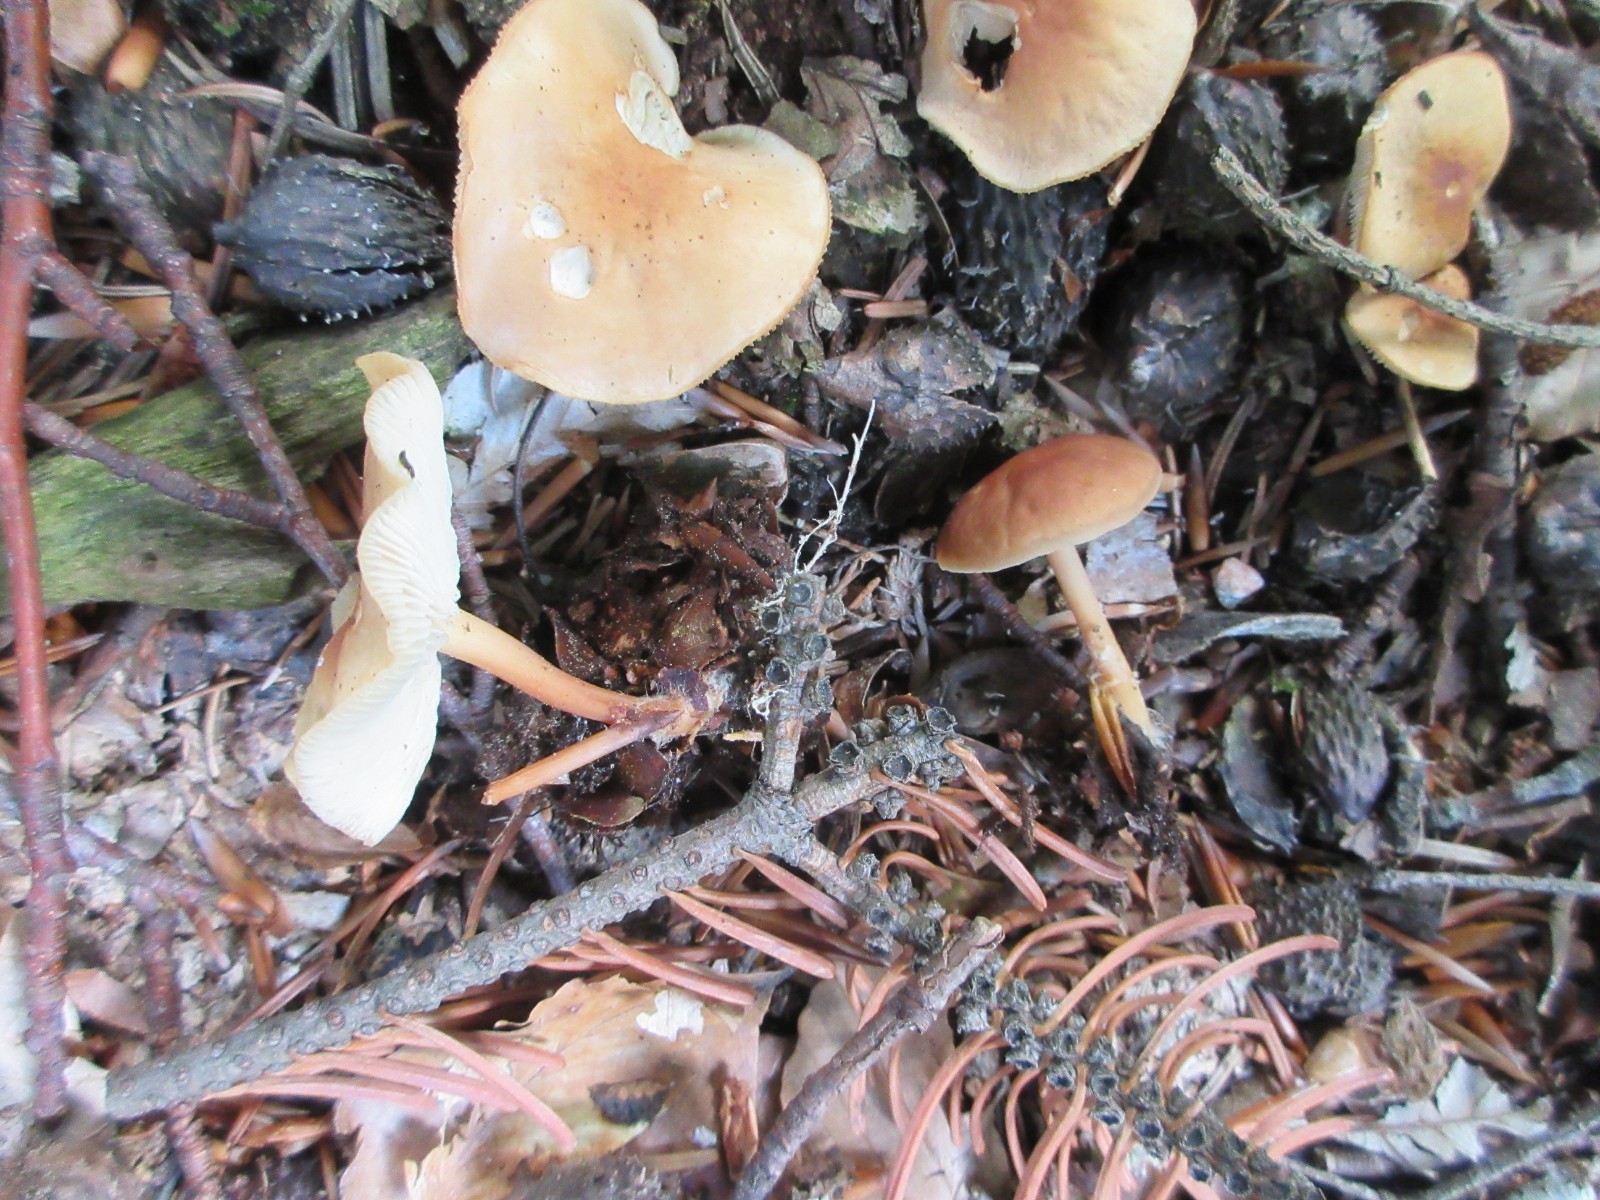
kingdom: Fungi
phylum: Basidiomycota
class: Agaricomycetes
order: Agaricales
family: Omphalotaceae
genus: Gymnopus
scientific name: Gymnopus dryophilus
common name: løv-fladhat
